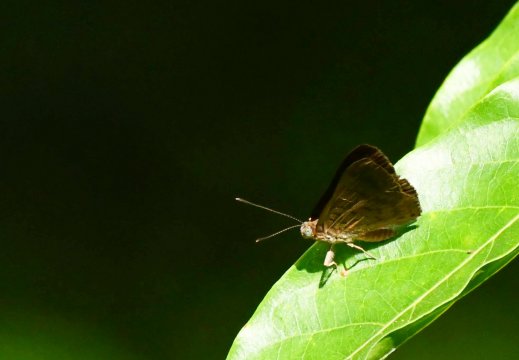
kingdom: Animalia
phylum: Arthropoda
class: Insecta
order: Lepidoptera
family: Lycaenidae
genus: Emesis
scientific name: Emesis ocypore
